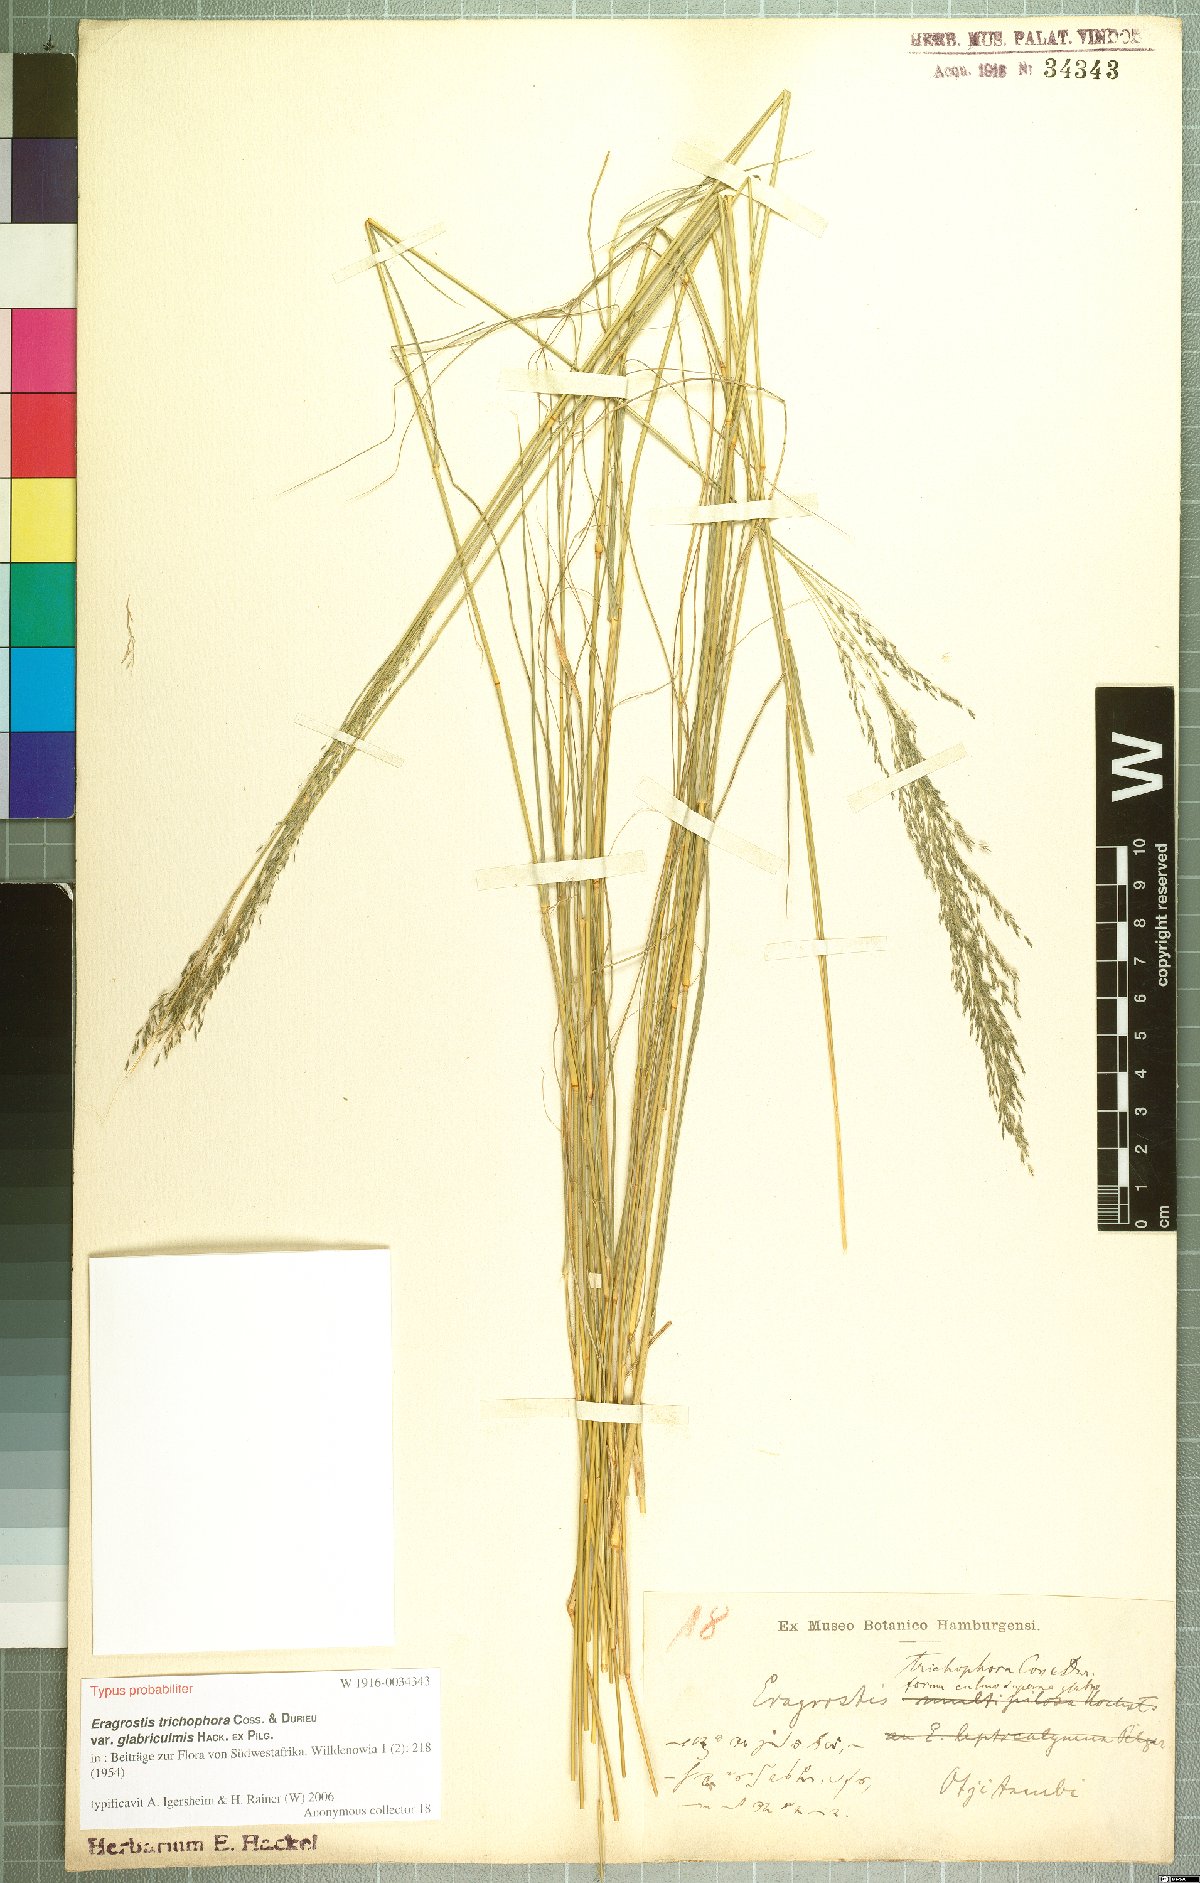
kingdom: Plantae
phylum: Tracheophyta
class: Liliopsida
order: Poales
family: Poaceae
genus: Eragrostis
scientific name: Eragrostis cylindriflora
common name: Cylinderflower lovegrass
